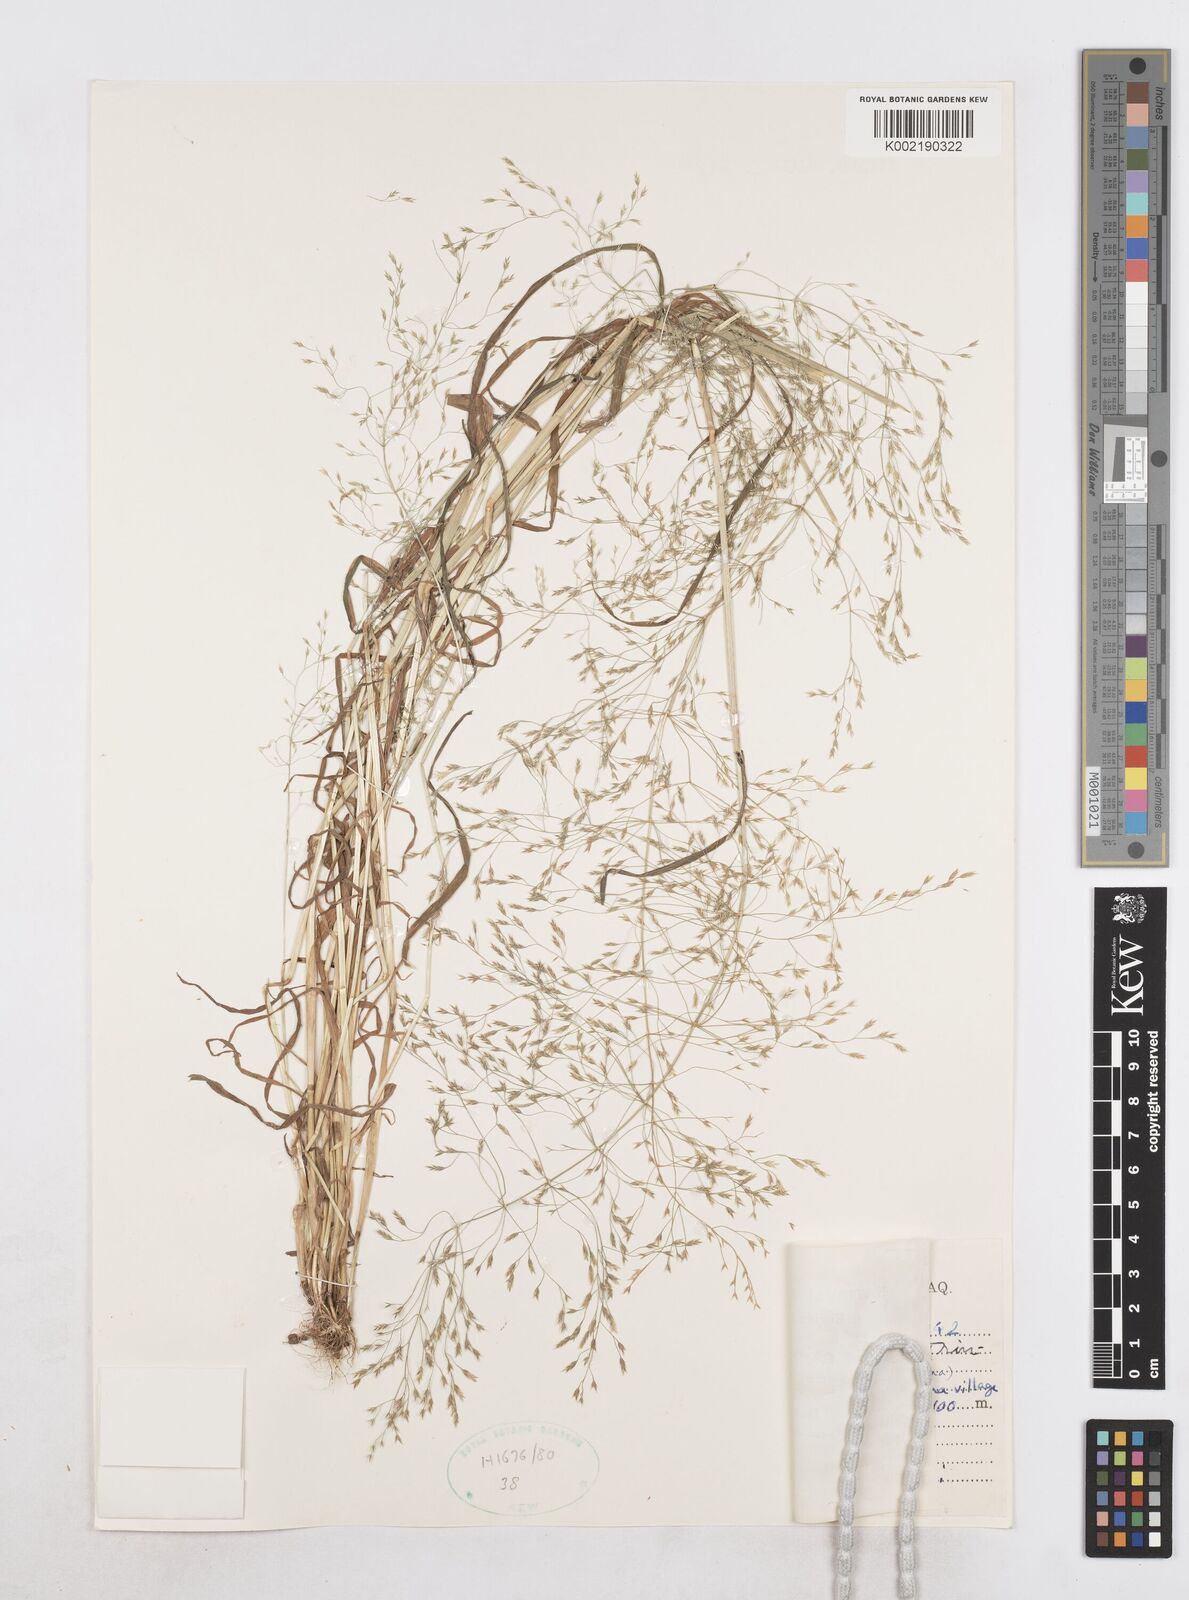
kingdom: Plantae
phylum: Tracheophyta
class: Liliopsida
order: Poales
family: Poaceae
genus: Poa
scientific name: Poa persica
